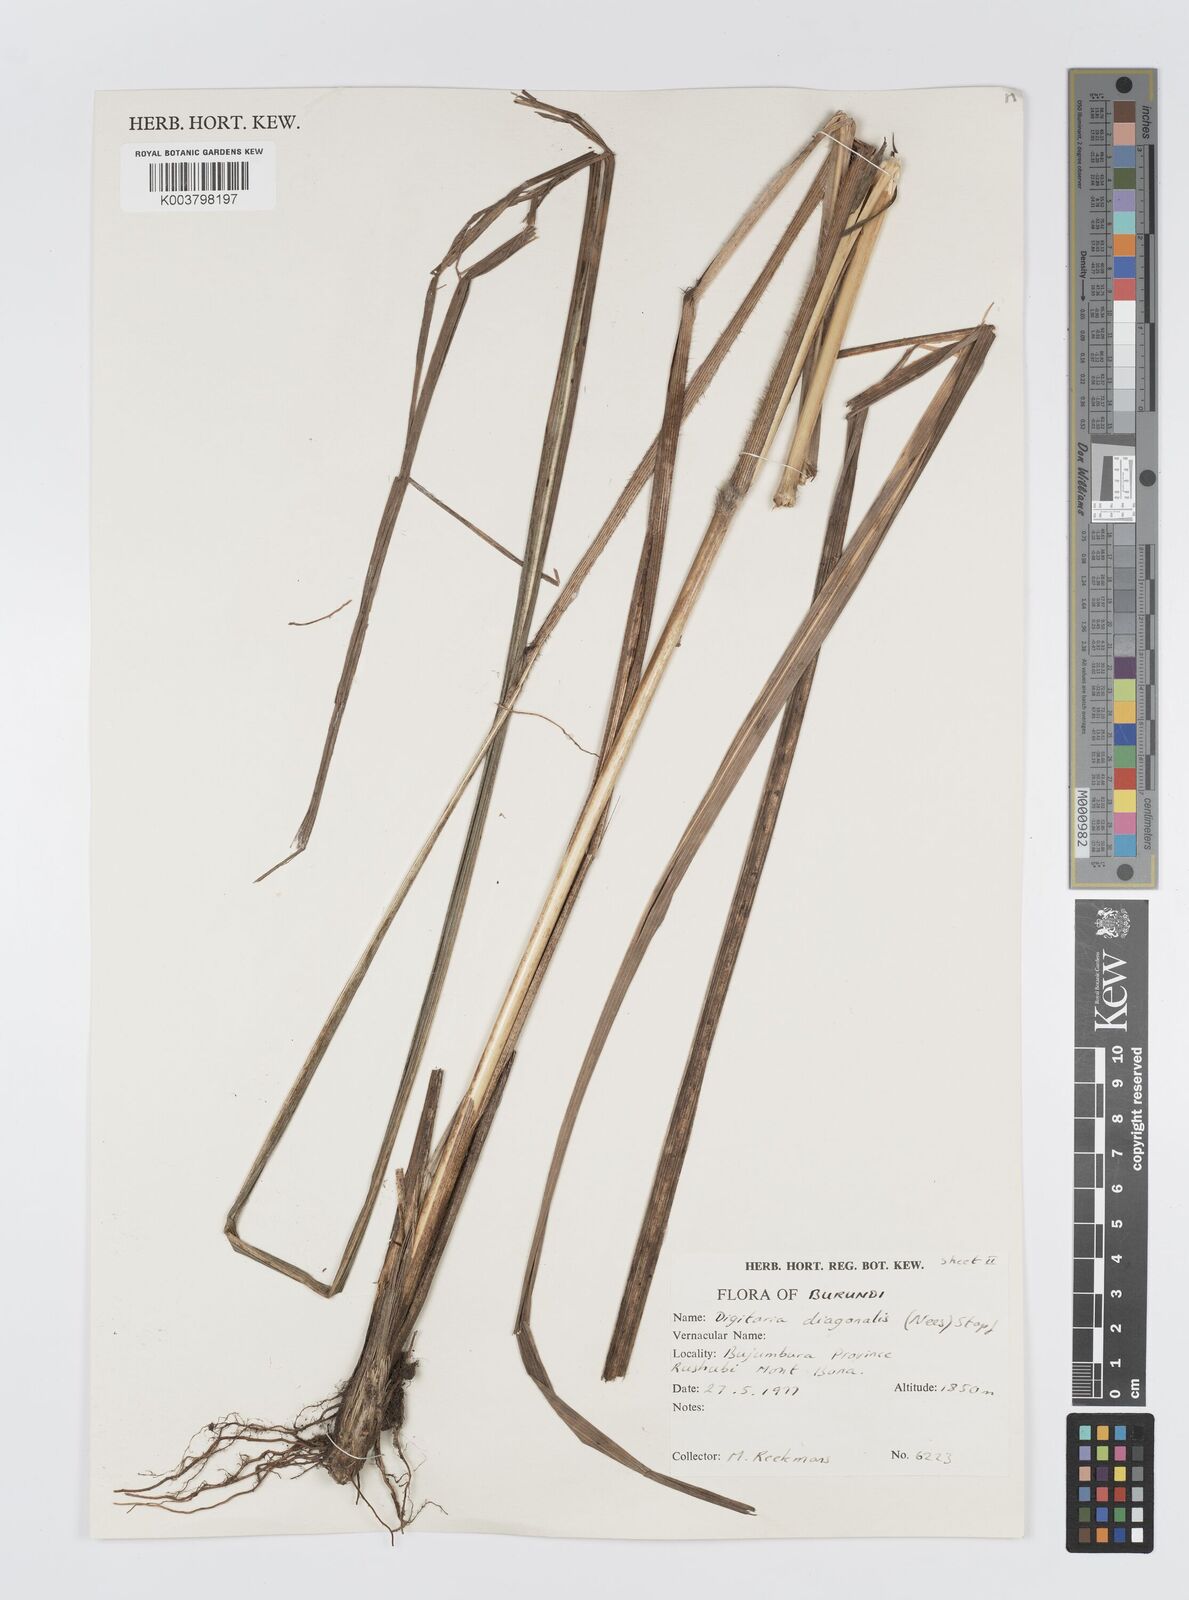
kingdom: Plantae
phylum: Tracheophyta
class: Liliopsida
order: Poales
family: Poaceae
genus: Digitaria
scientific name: Digitaria diagonalis
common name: Brown-seed finger grass
